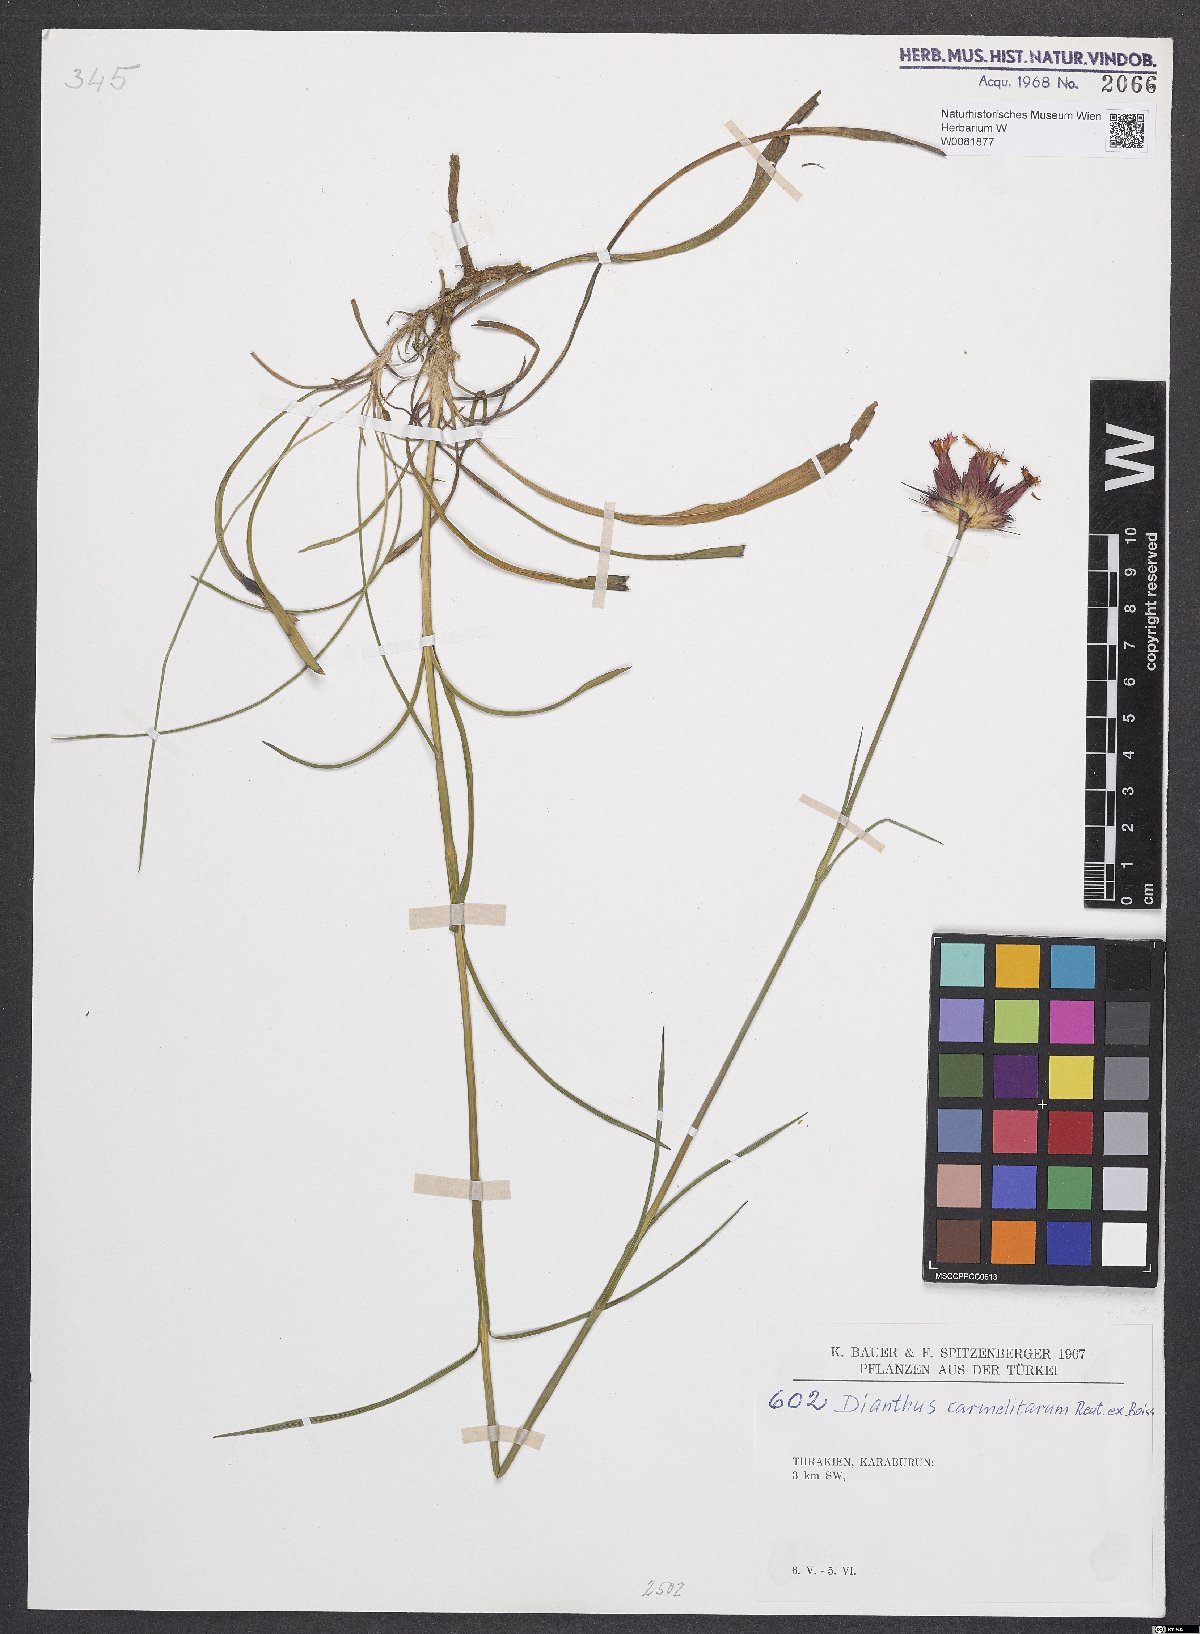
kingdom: Plantae
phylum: Tracheophyta
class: Magnoliopsida
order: Caryophyllales
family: Caryophyllaceae
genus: Dianthus
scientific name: Dianthus carmelitarum
